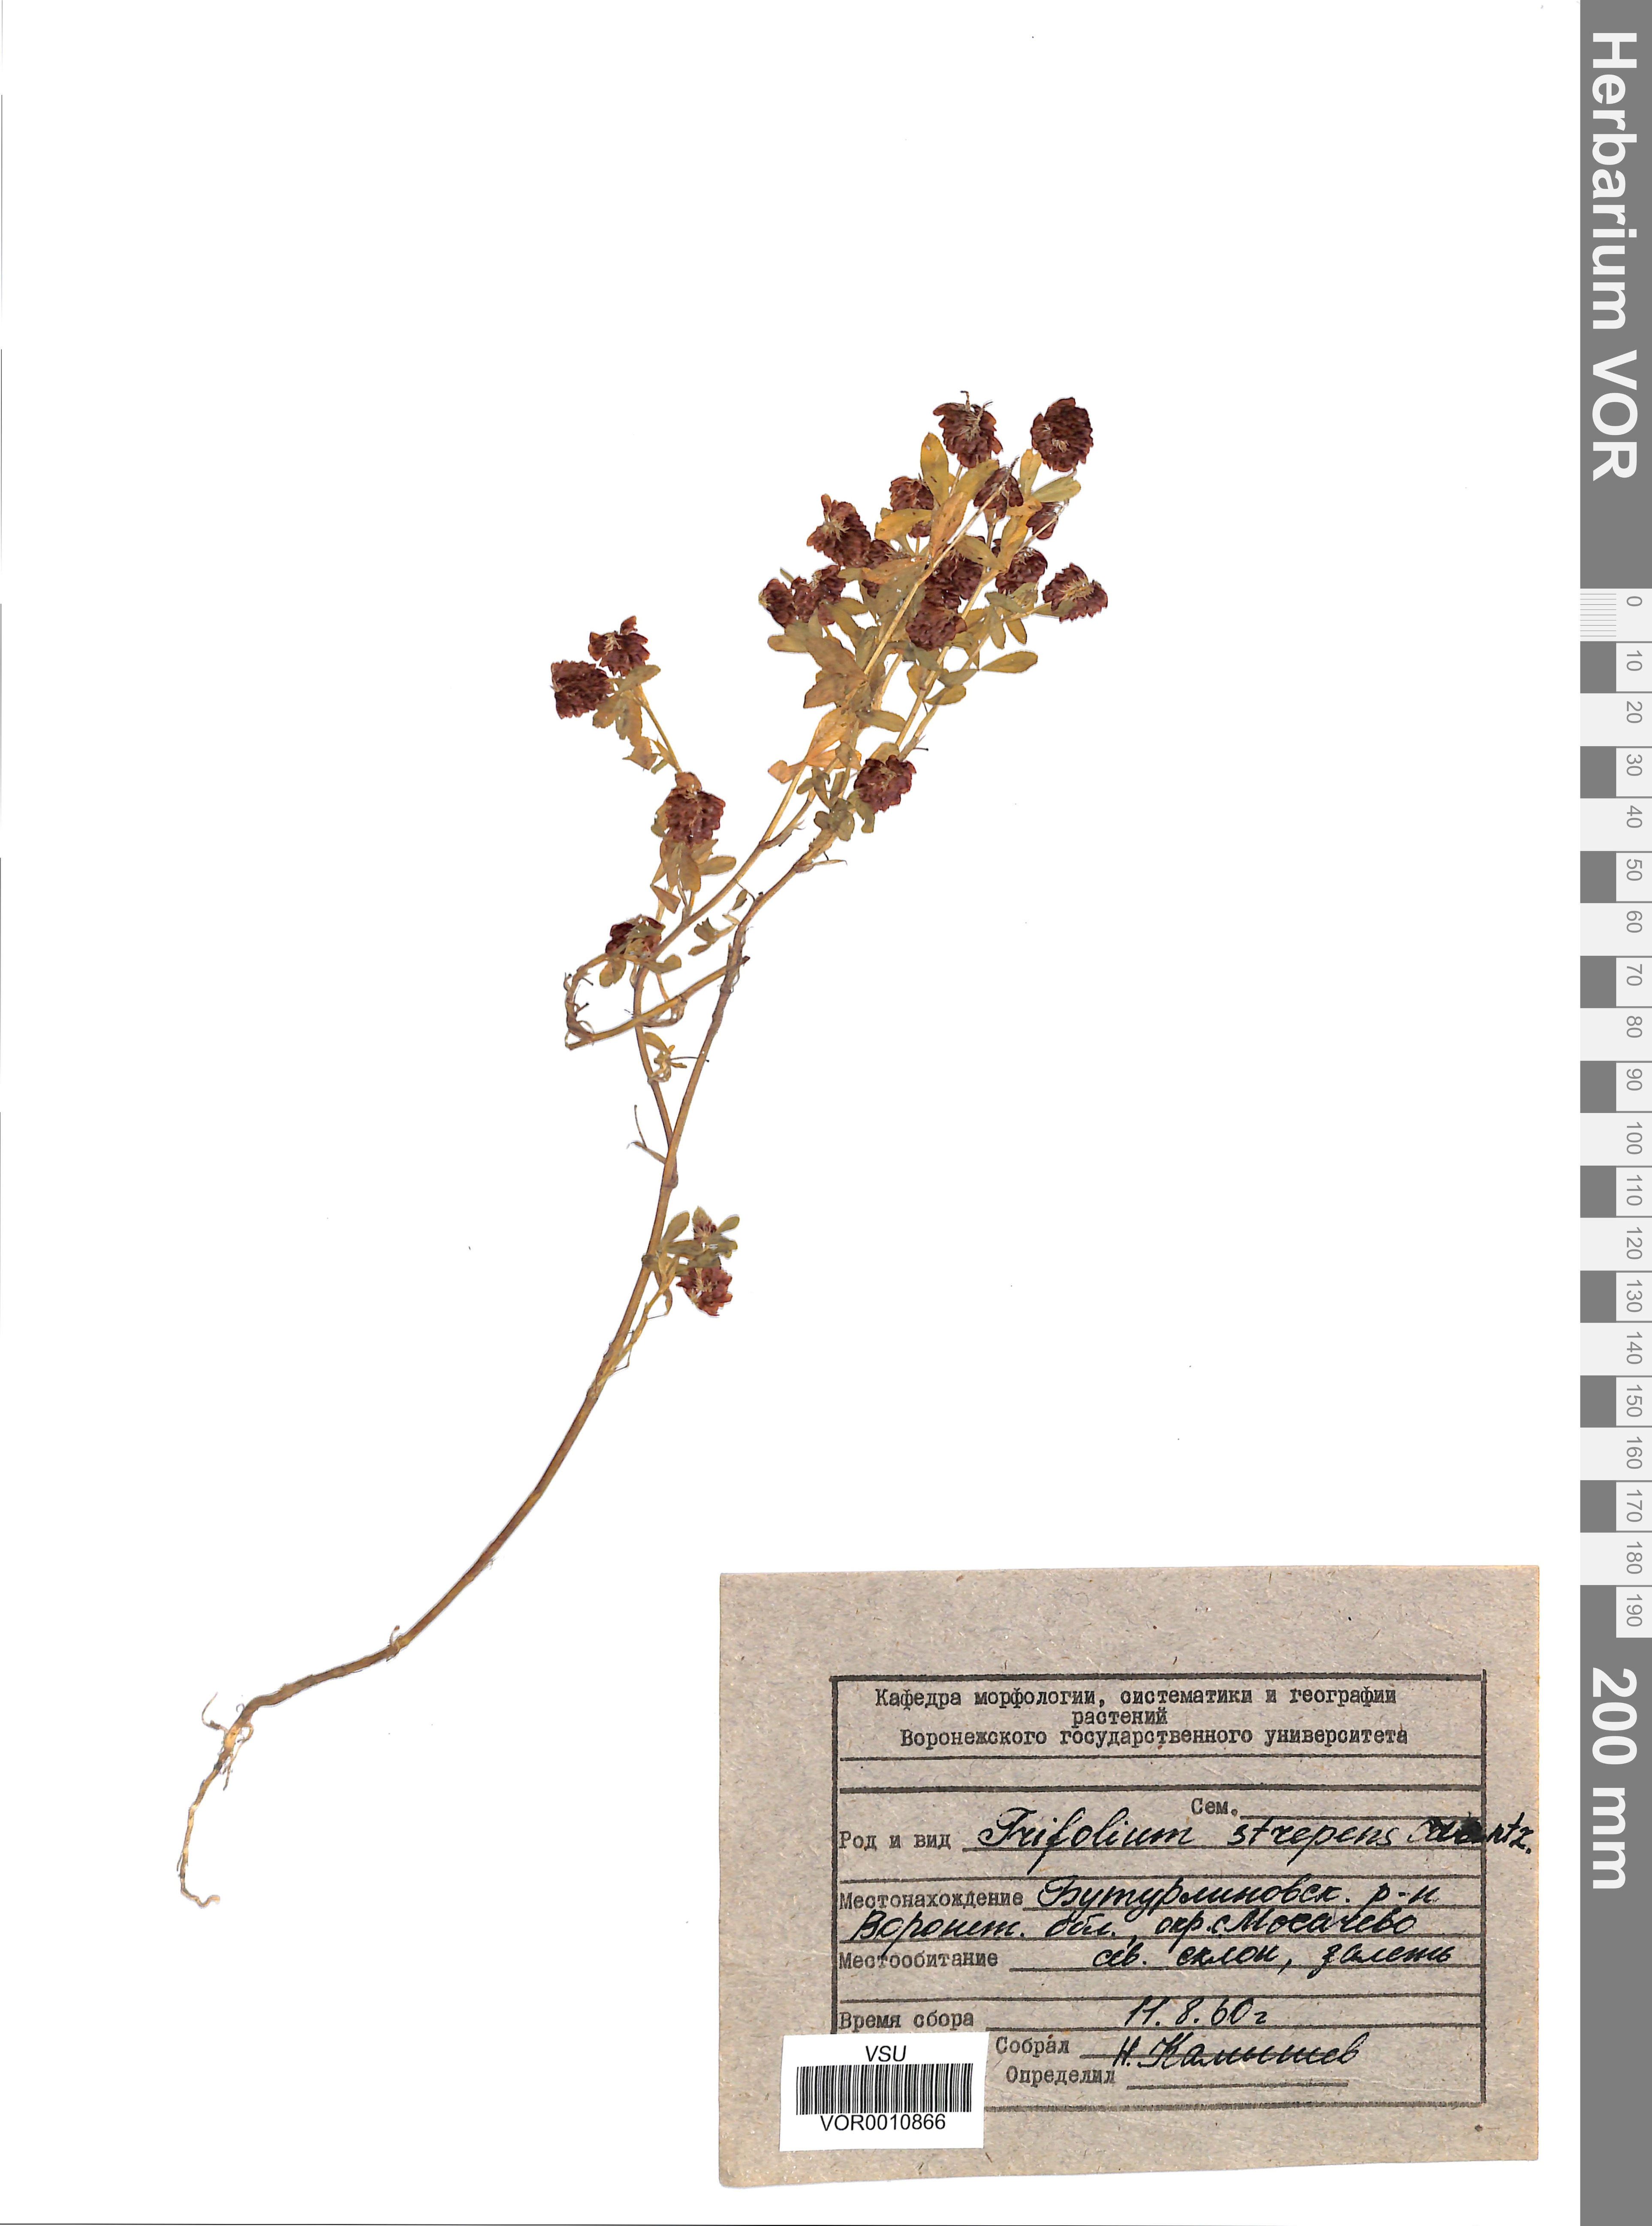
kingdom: Plantae
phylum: Tracheophyta
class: Magnoliopsida
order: Fabales
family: Fabaceae
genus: Trifolium
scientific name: Trifolium aureum
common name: Golden clover
